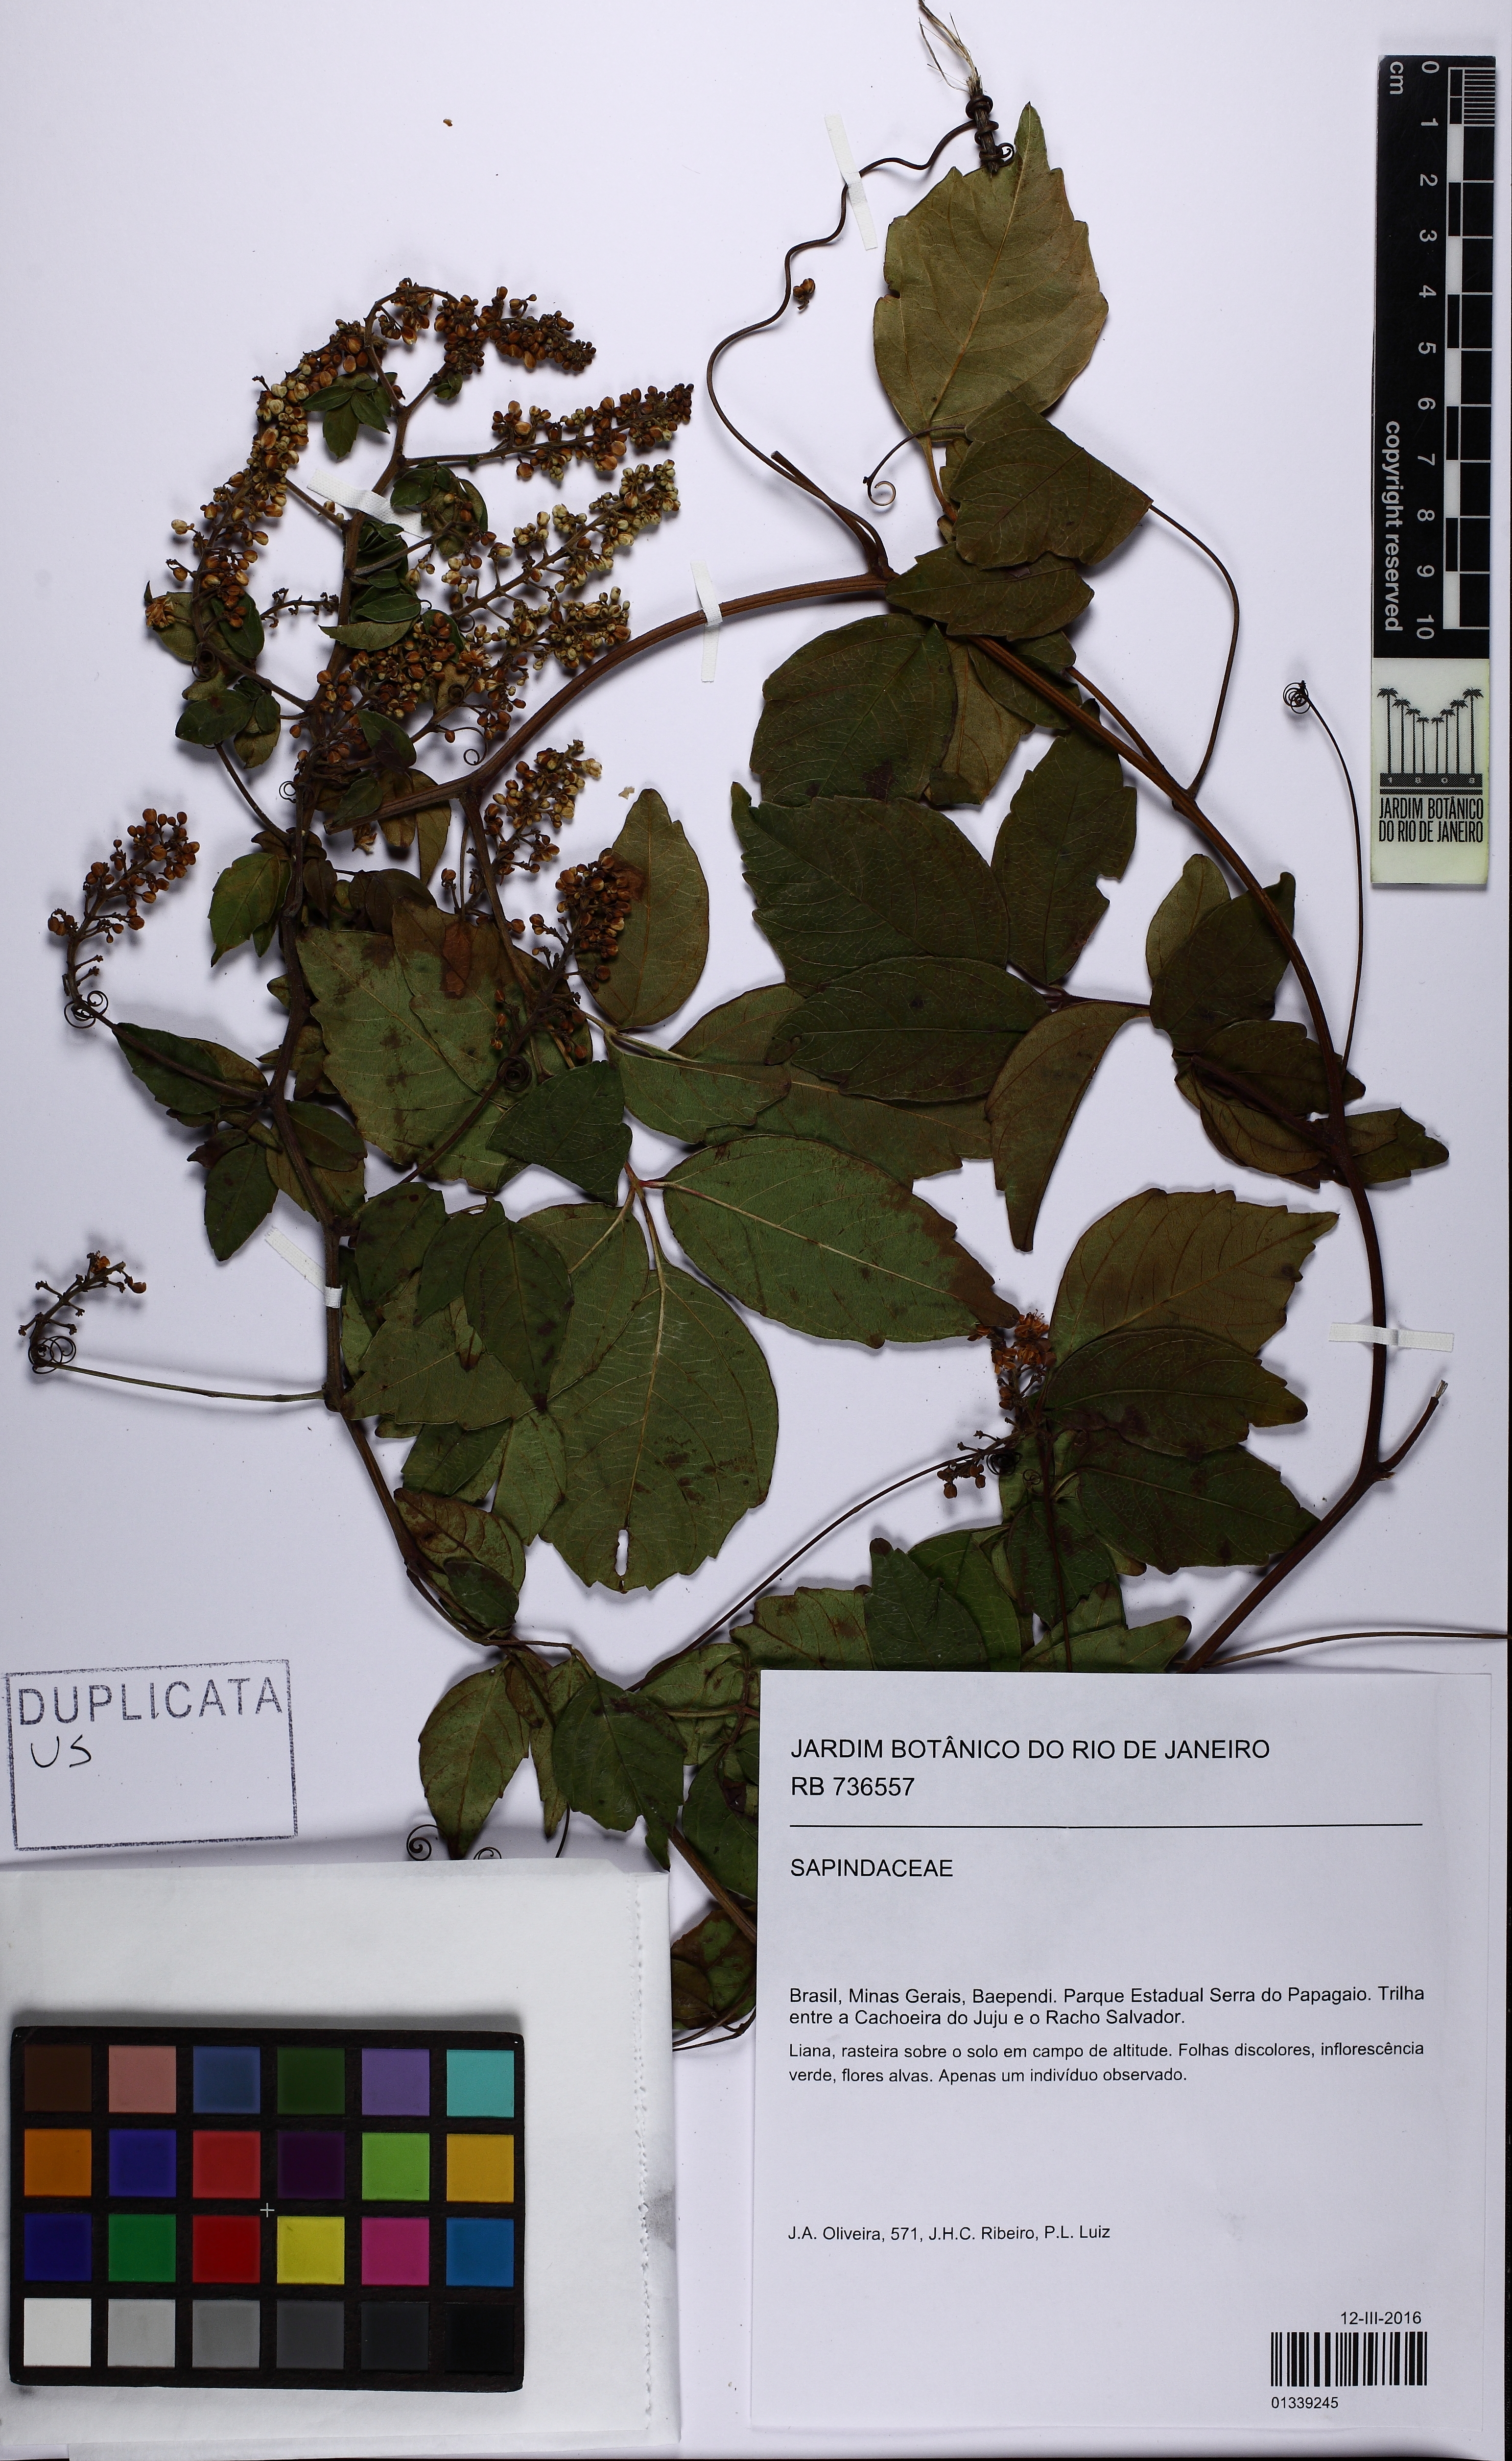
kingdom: Plantae
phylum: Tracheophyta
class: Magnoliopsida
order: Sapindales
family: Sapindaceae
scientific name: Sapindaceae
